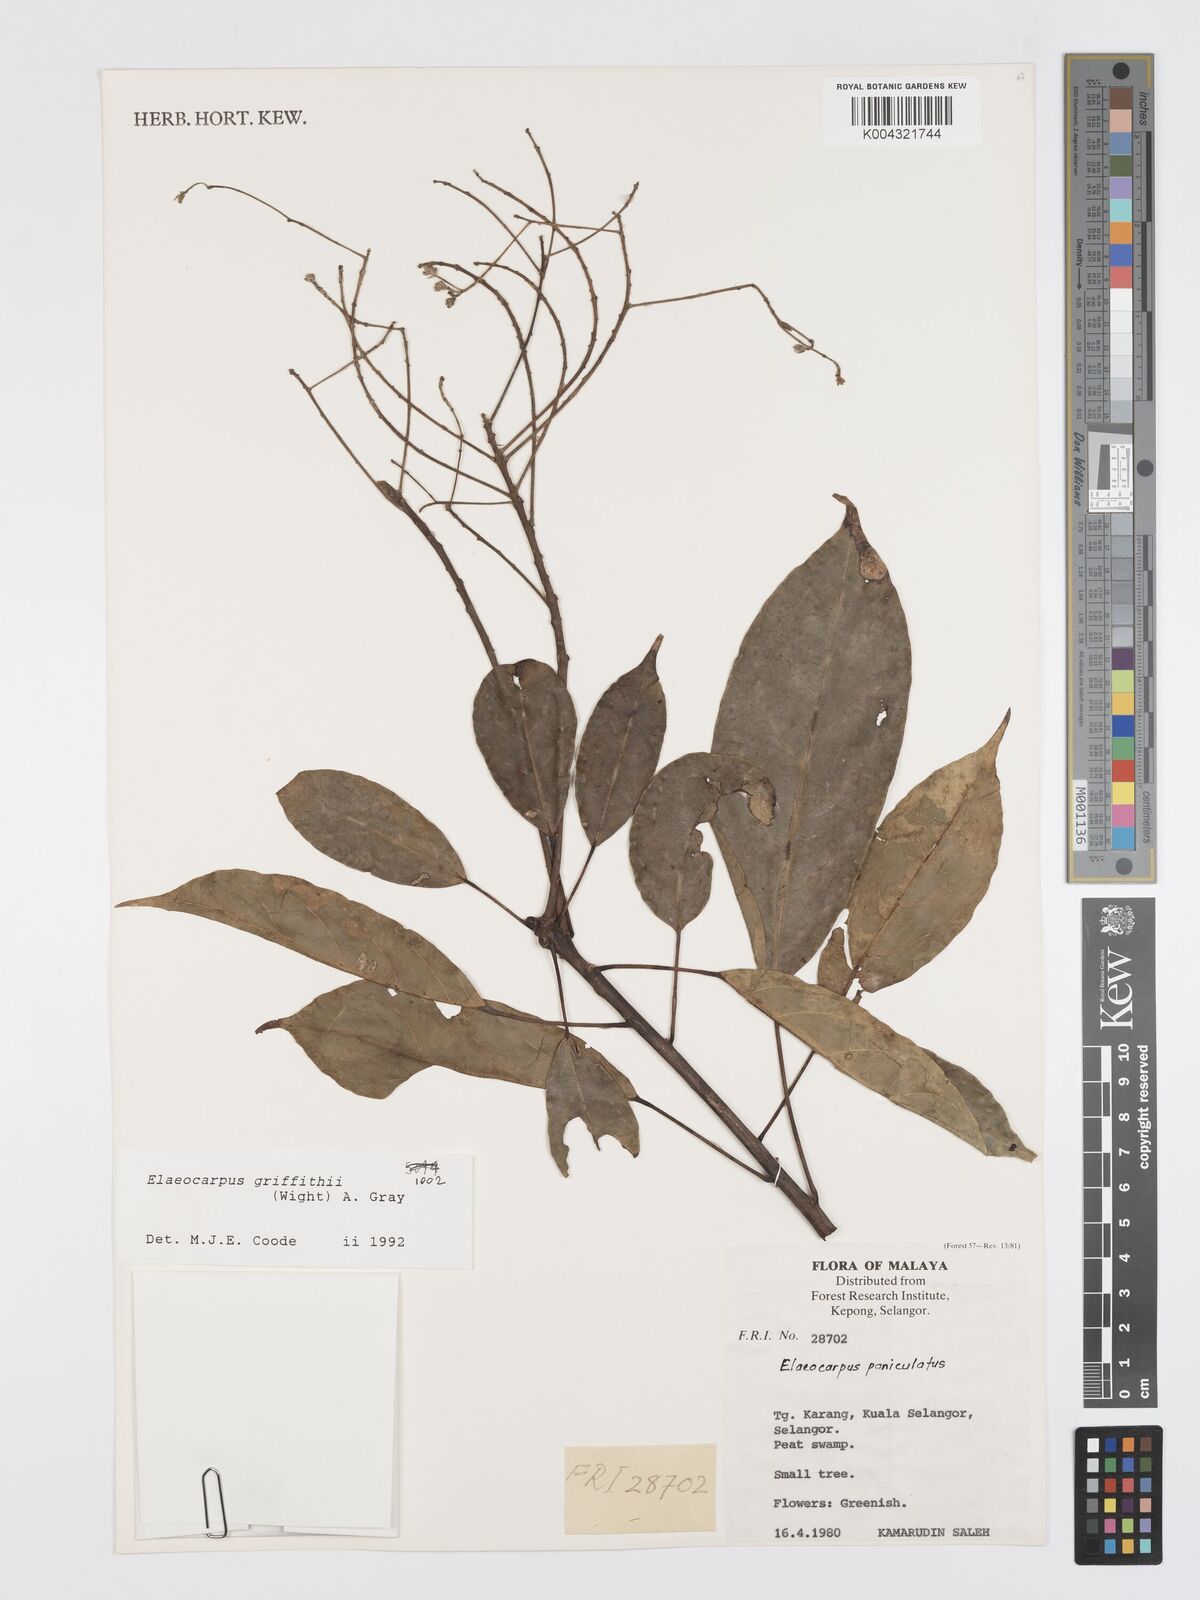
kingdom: Plantae
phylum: Tracheophyta
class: Magnoliopsida
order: Oxalidales
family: Elaeocarpaceae
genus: Elaeocarpus
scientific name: Elaeocarpus griffithii
